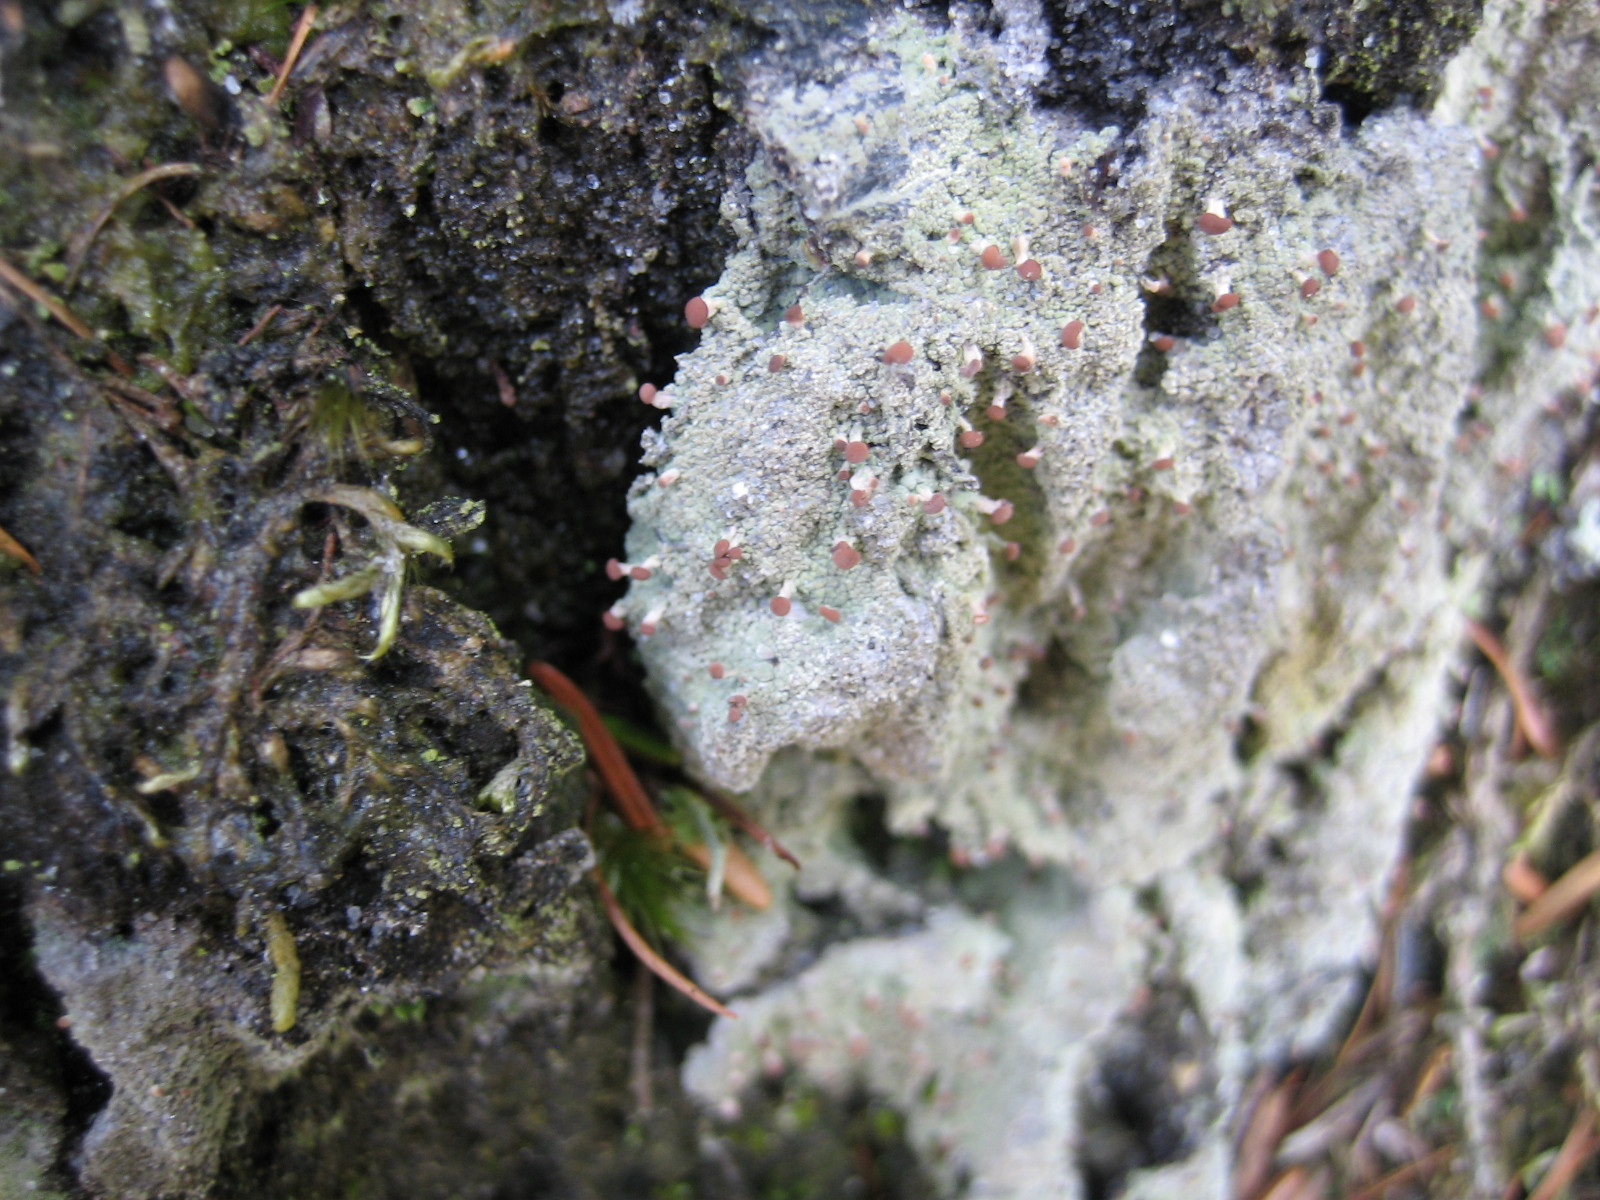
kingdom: Fungi
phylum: Ascomycota
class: Lecanoromycetes
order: Baeomycetales
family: Baeomycetaceae
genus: Baeomyces
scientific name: Baeomyces rufus
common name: rødbrun svampelav
